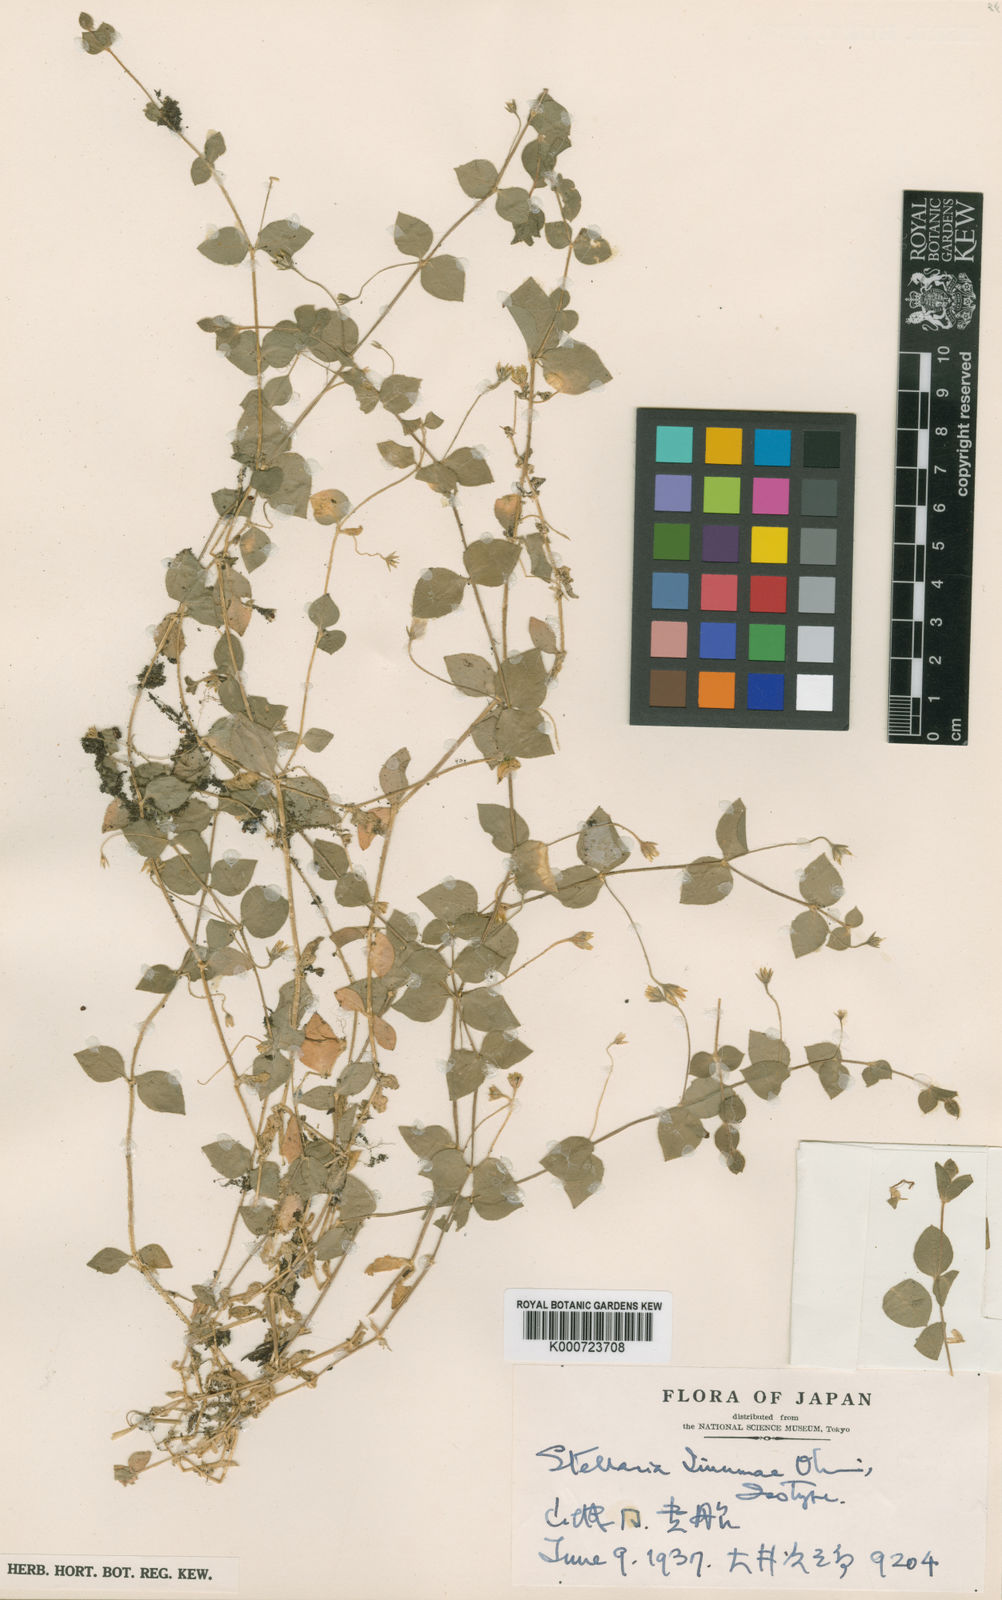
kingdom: Plantae
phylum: Tracheophyta
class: Magnoliopsida
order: Caryophyllales
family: Caryophyllaceae
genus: Stellaria
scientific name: Stellaria
